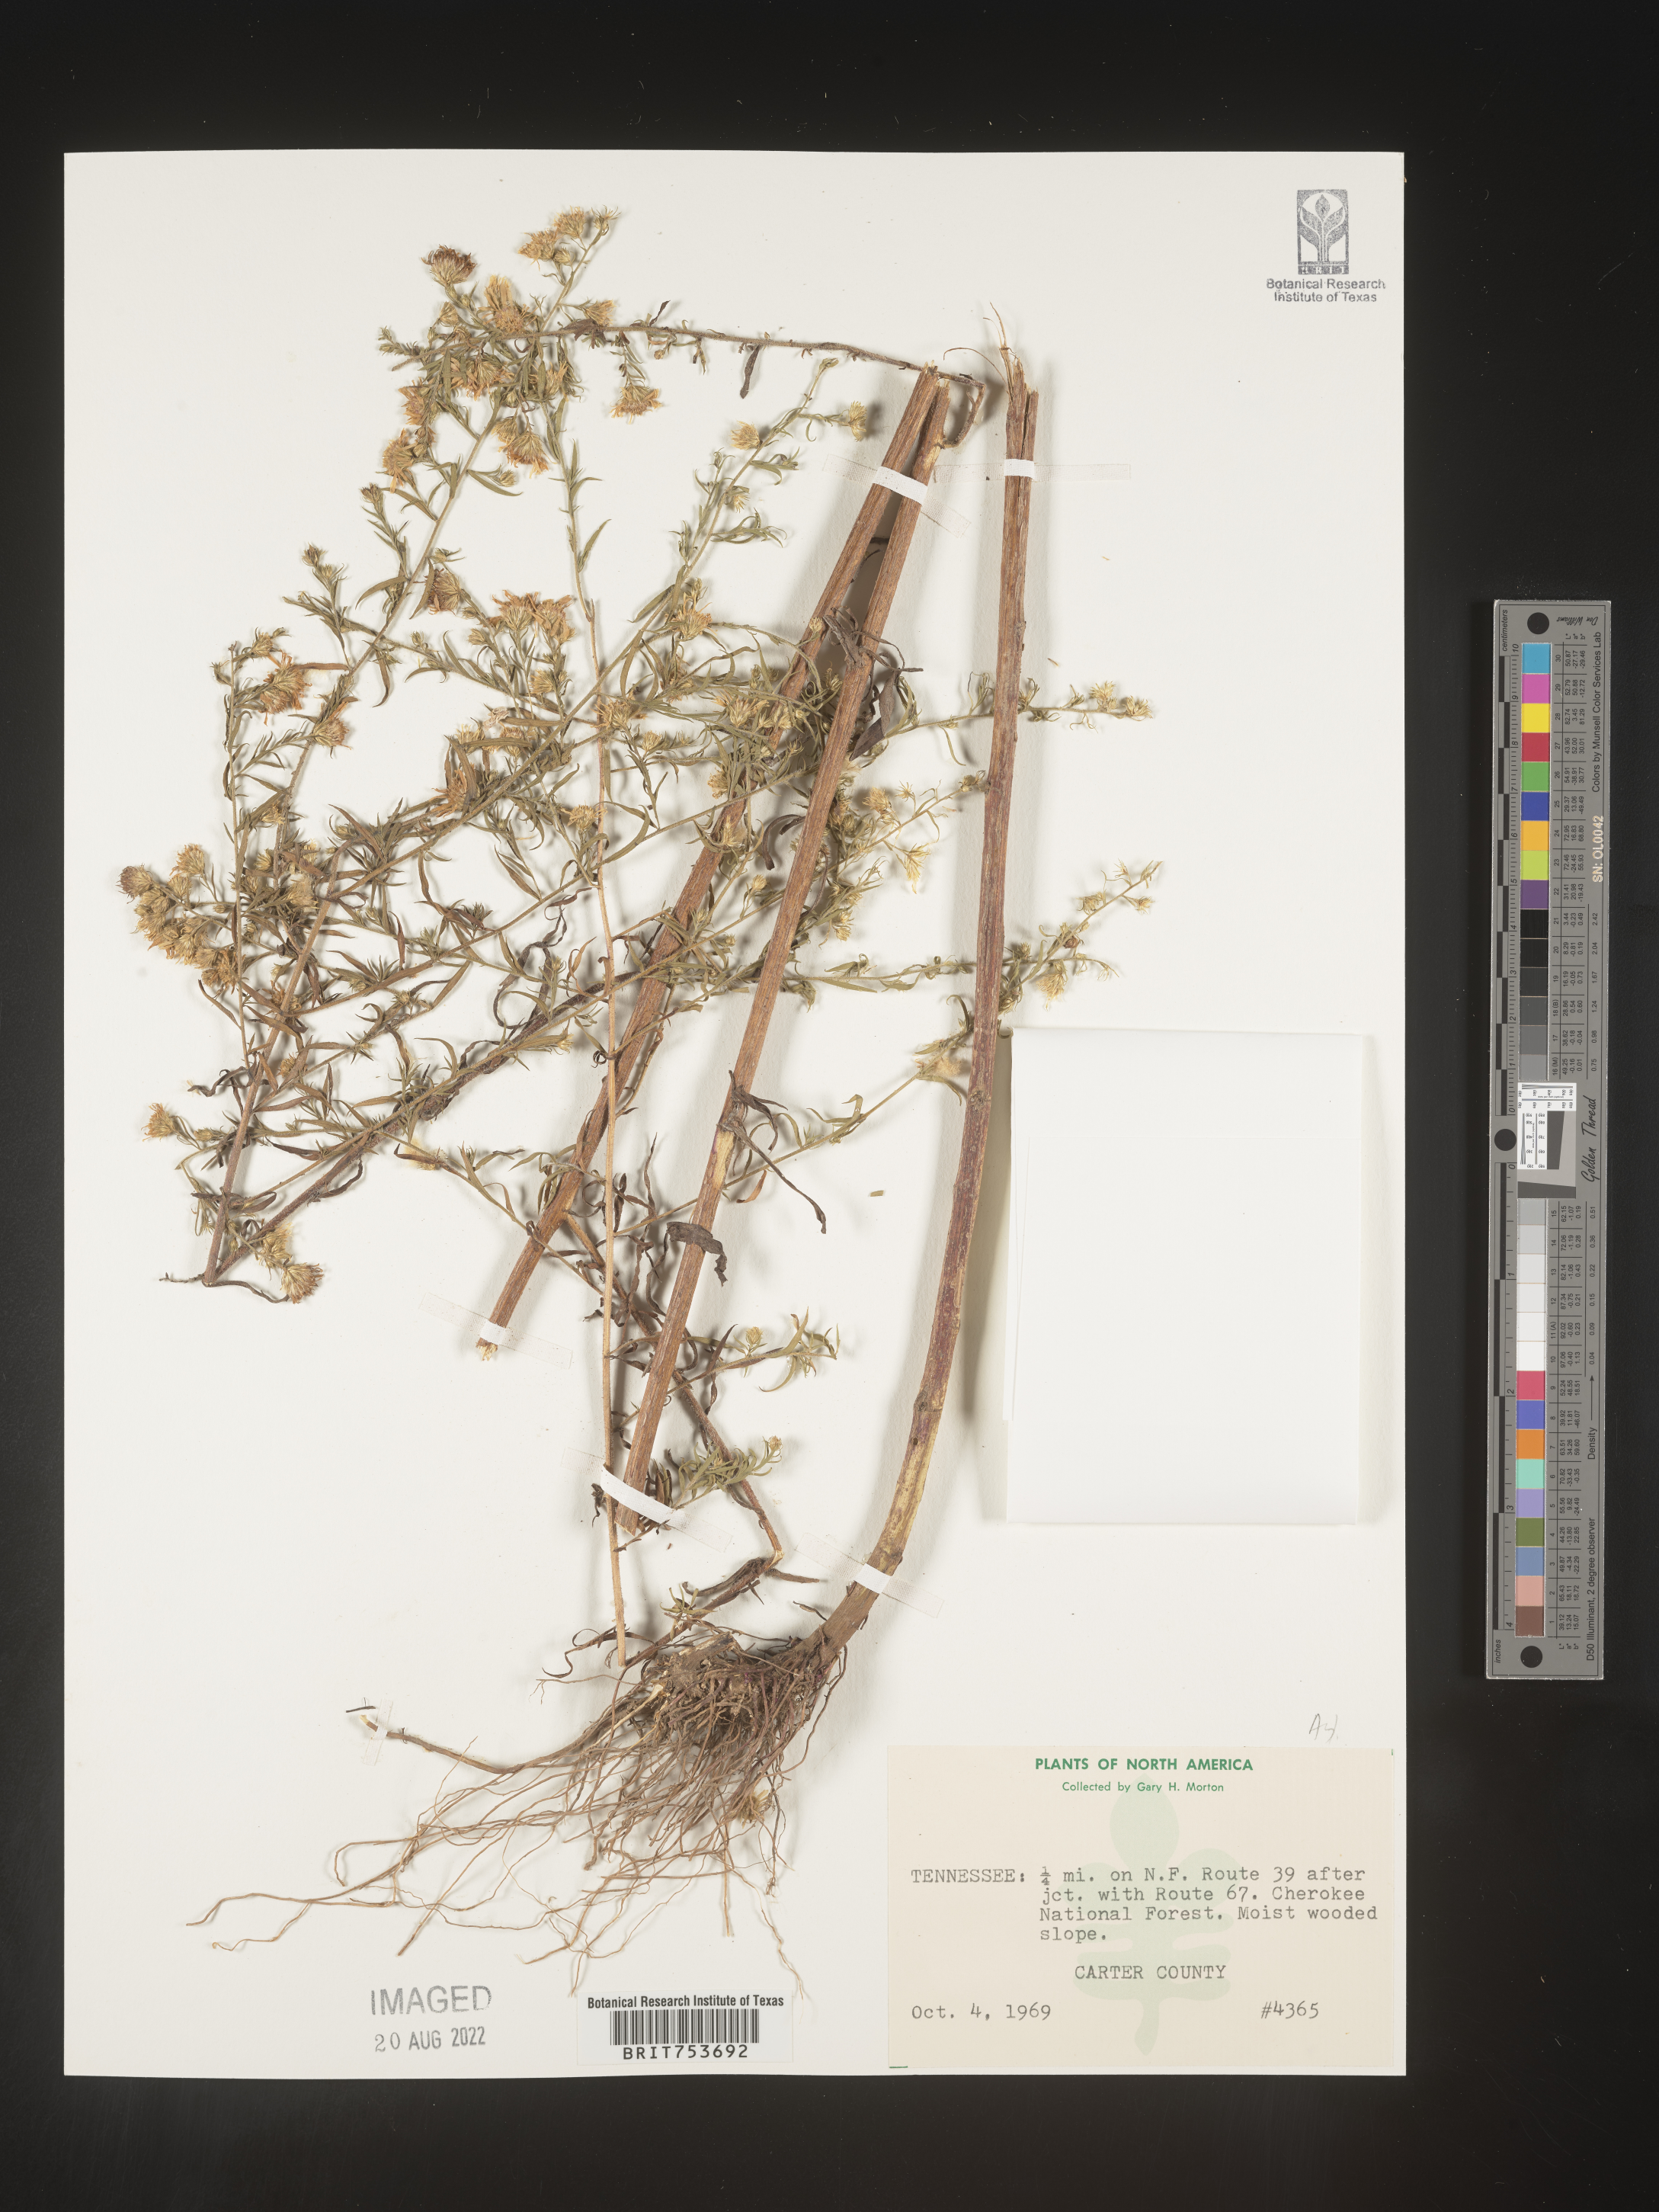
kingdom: Plantae
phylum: Tracheophyta
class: Magnoliopsida
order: Asterales
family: Asteraceae
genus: Symphyotrichum
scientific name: Symphyotrichum pilosum
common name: Awl aster
